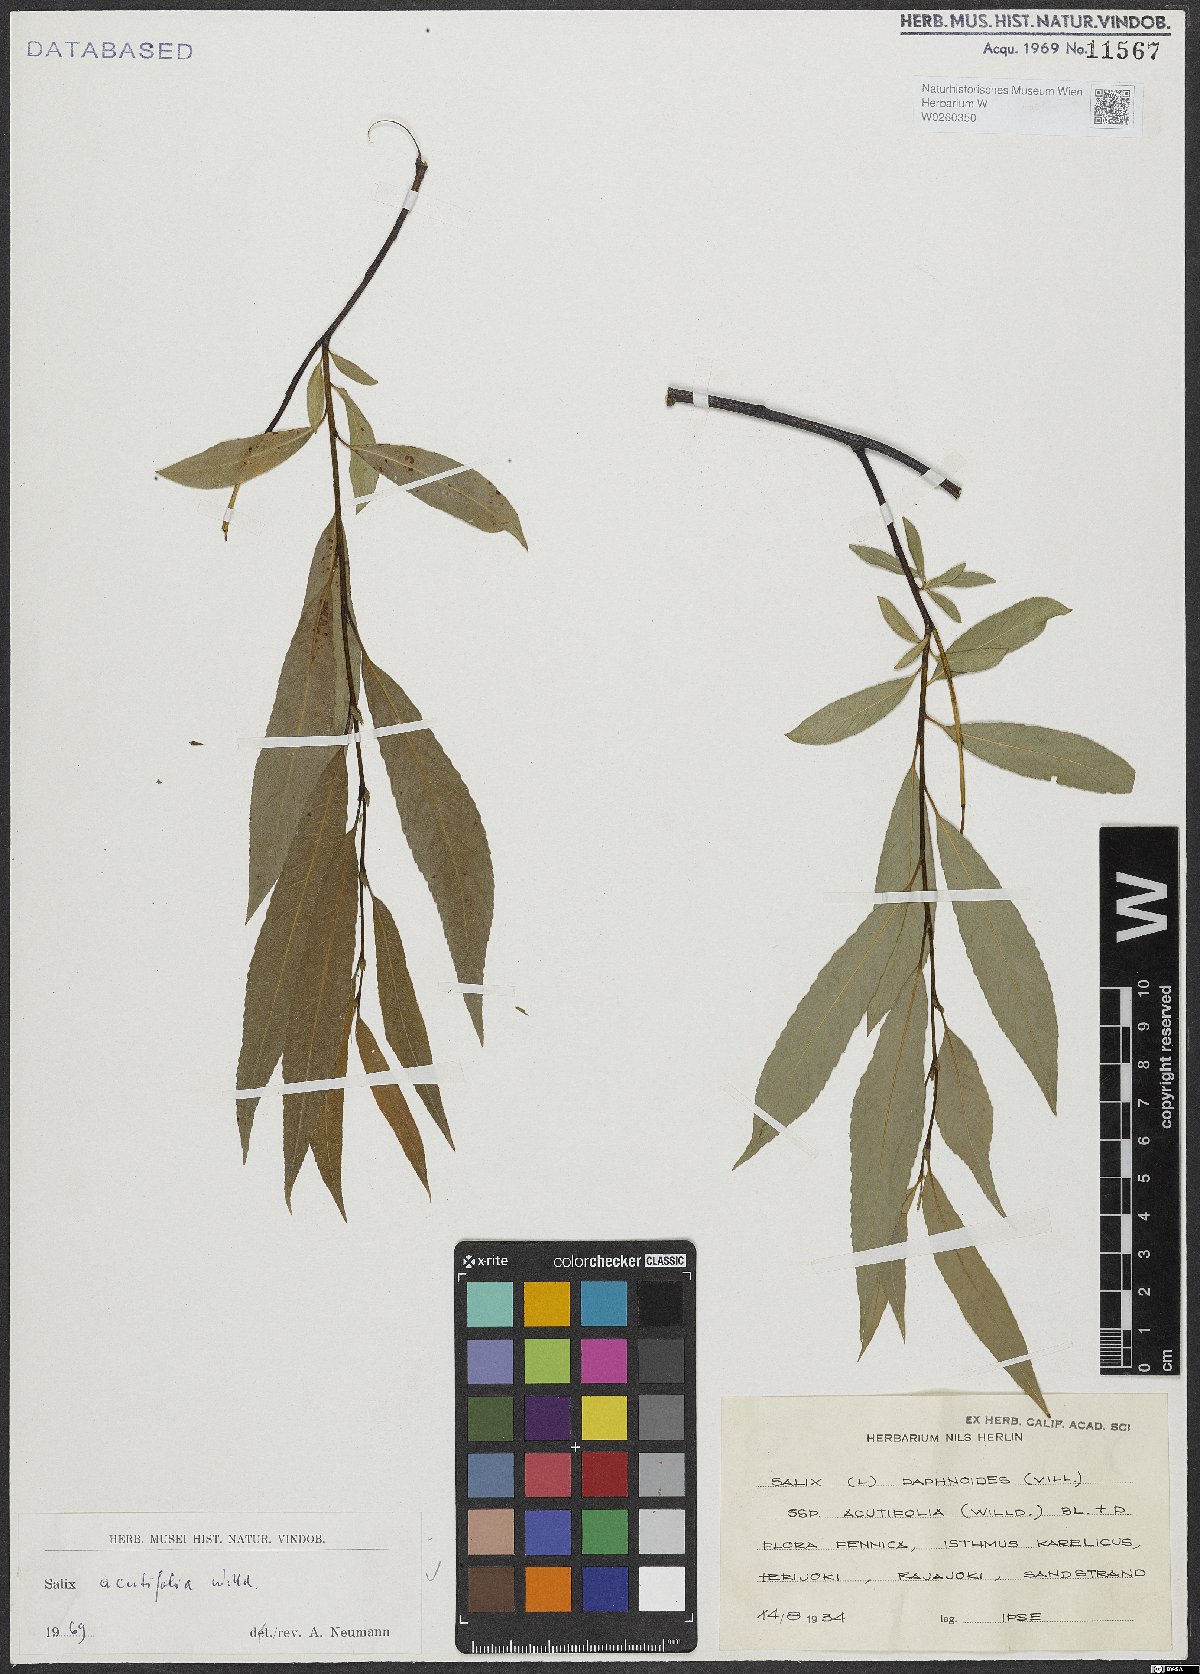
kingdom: Plantae
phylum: Tracheophyta
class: Magnoliopsida
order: Malpighiales
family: Salicaceae
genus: Salix
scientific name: Salix acutifolia
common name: Siberian violet-willow
